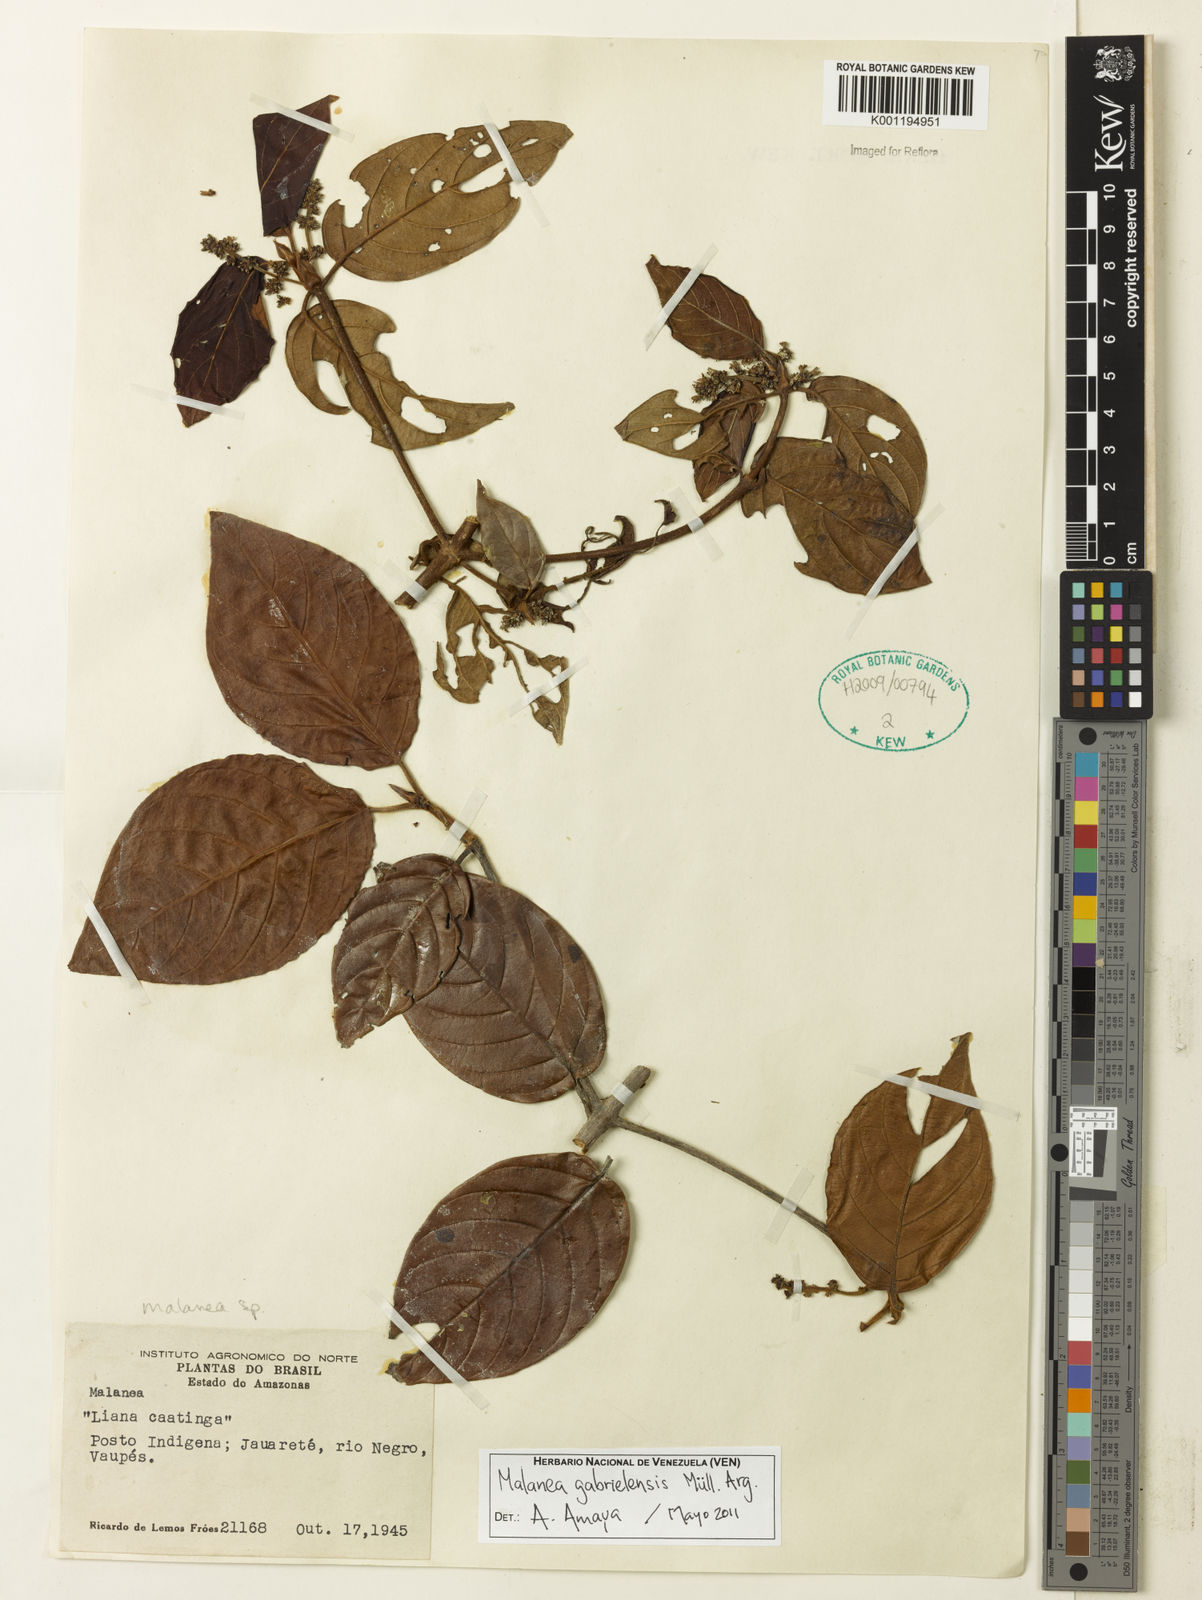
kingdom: Plantae
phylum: Tracheophyta
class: Magnoliopsida
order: Gentianales
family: Rubiaceae
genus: Malanea
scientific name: Malanea
